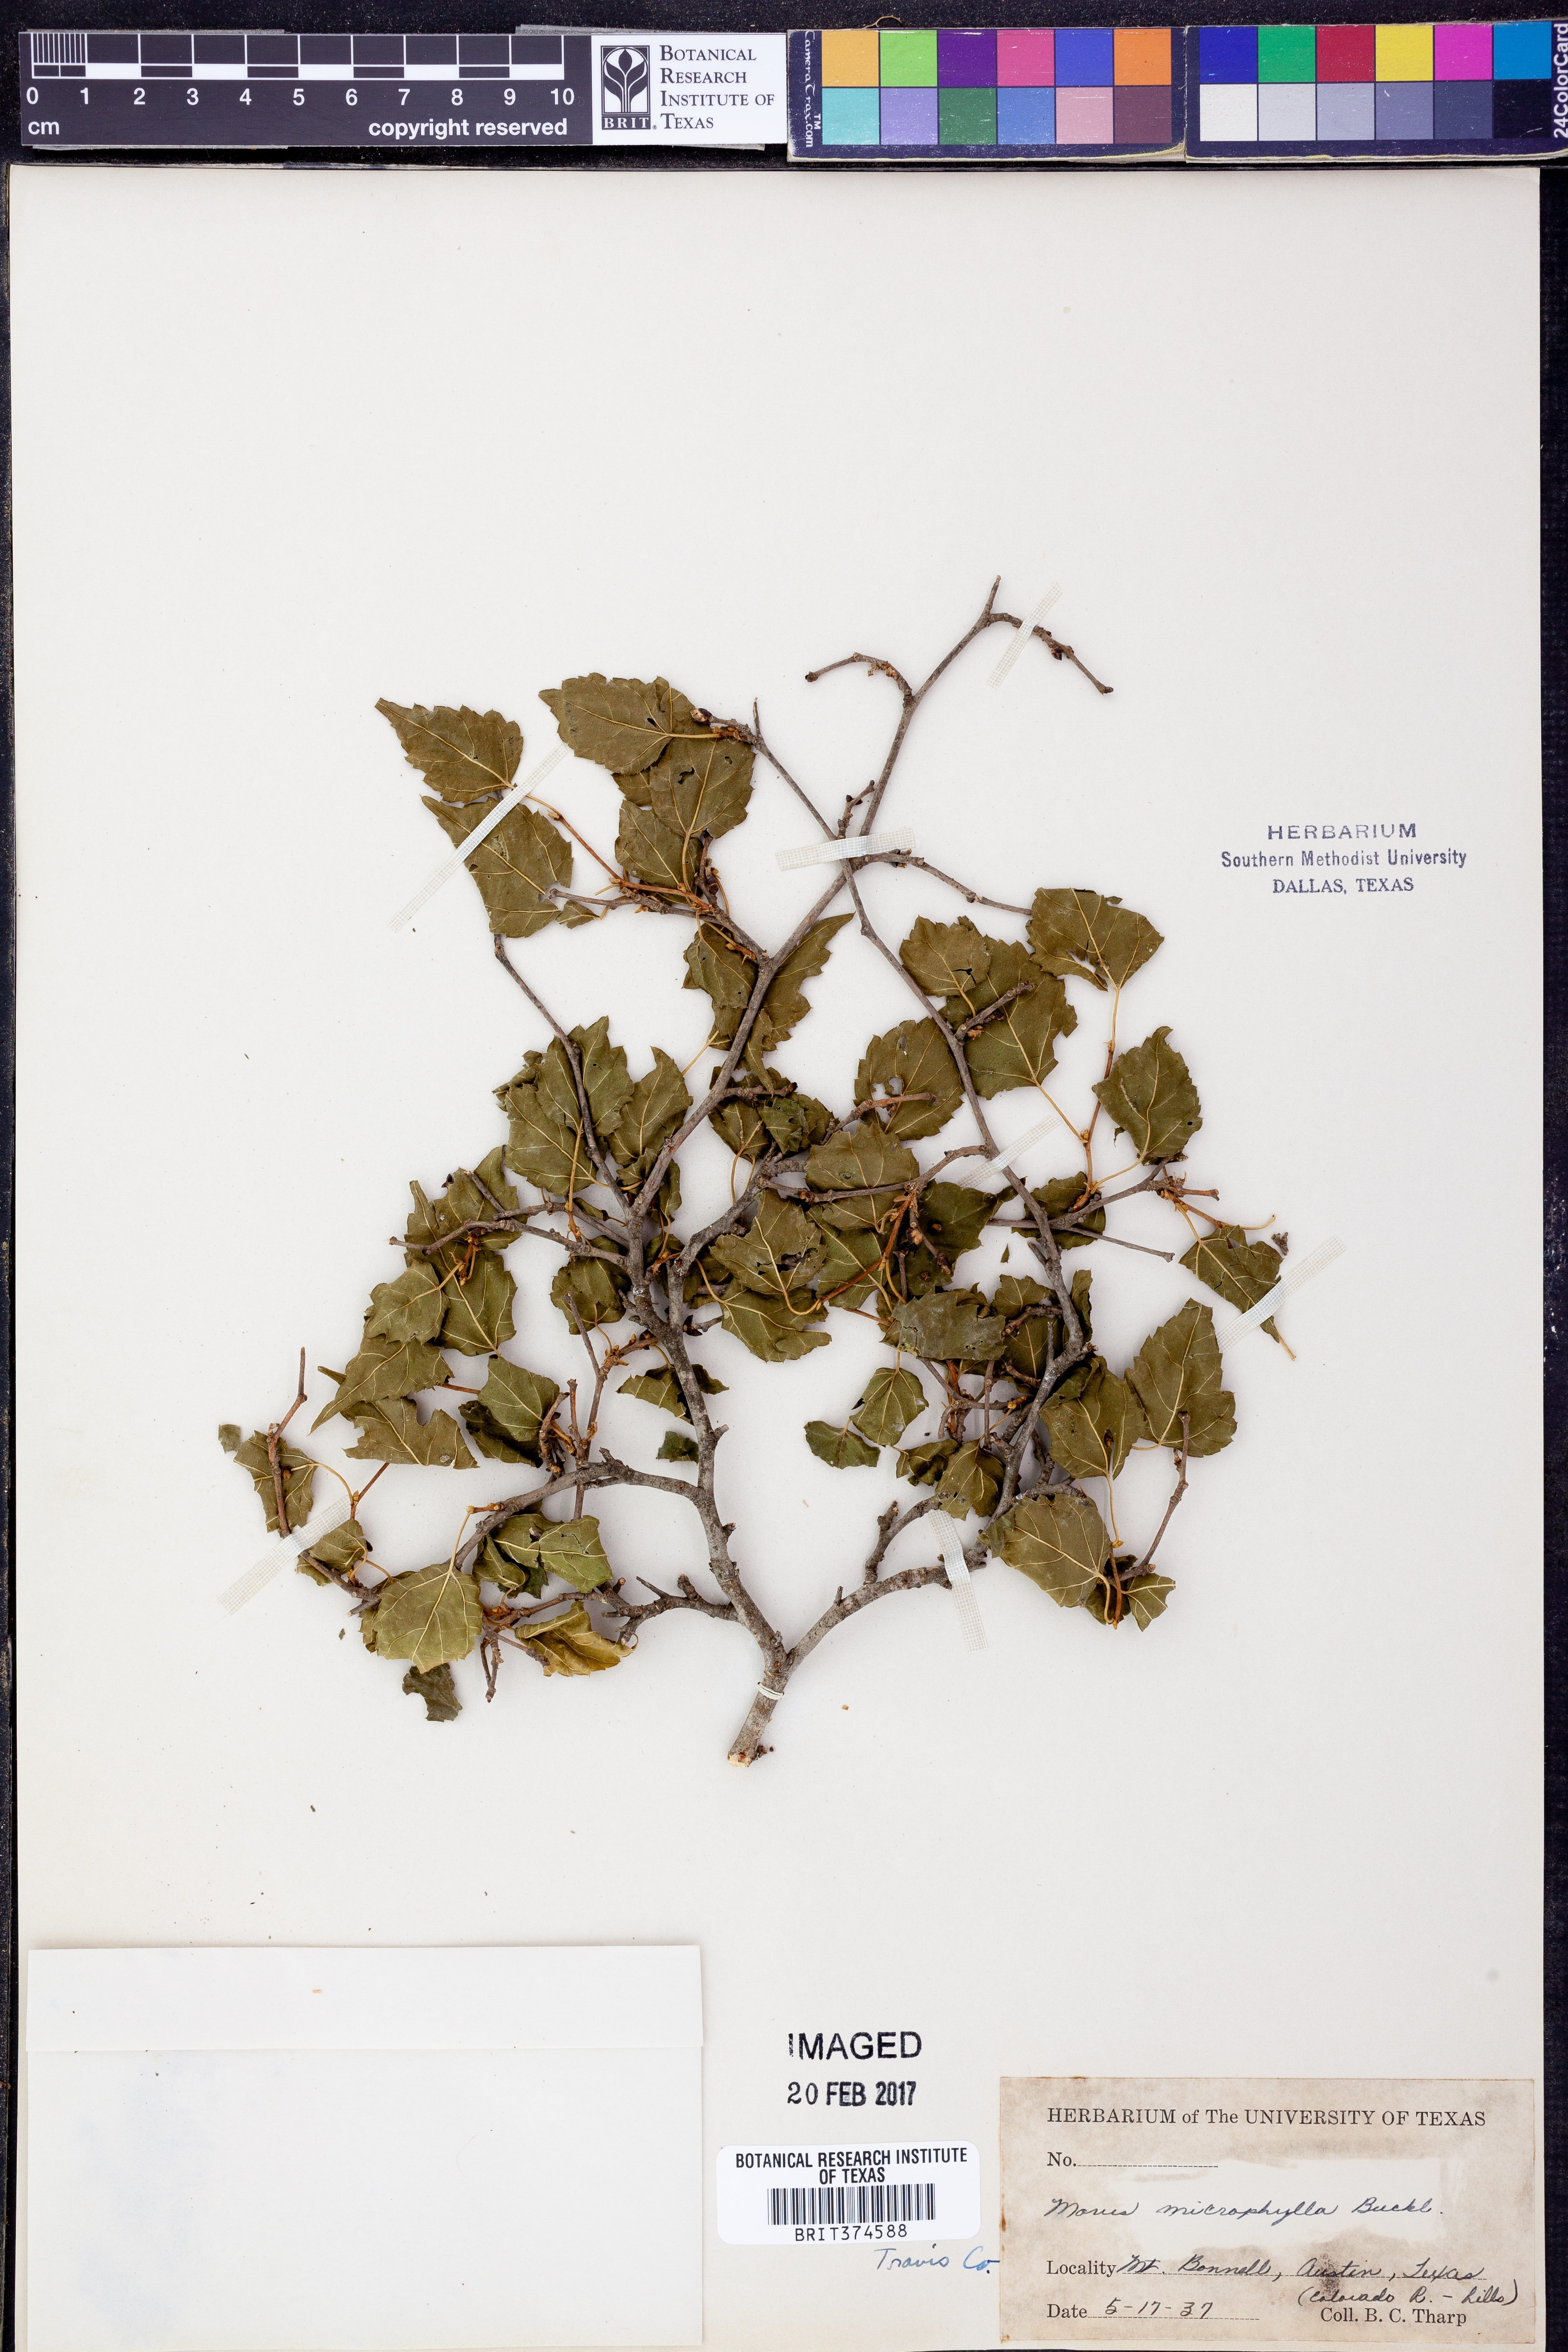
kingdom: Plantae
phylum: Tracheophyta
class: Magnoliopsida
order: Rosales
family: Moraceae
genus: Morus
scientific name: Morus microphylla
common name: Mexican mulberry
